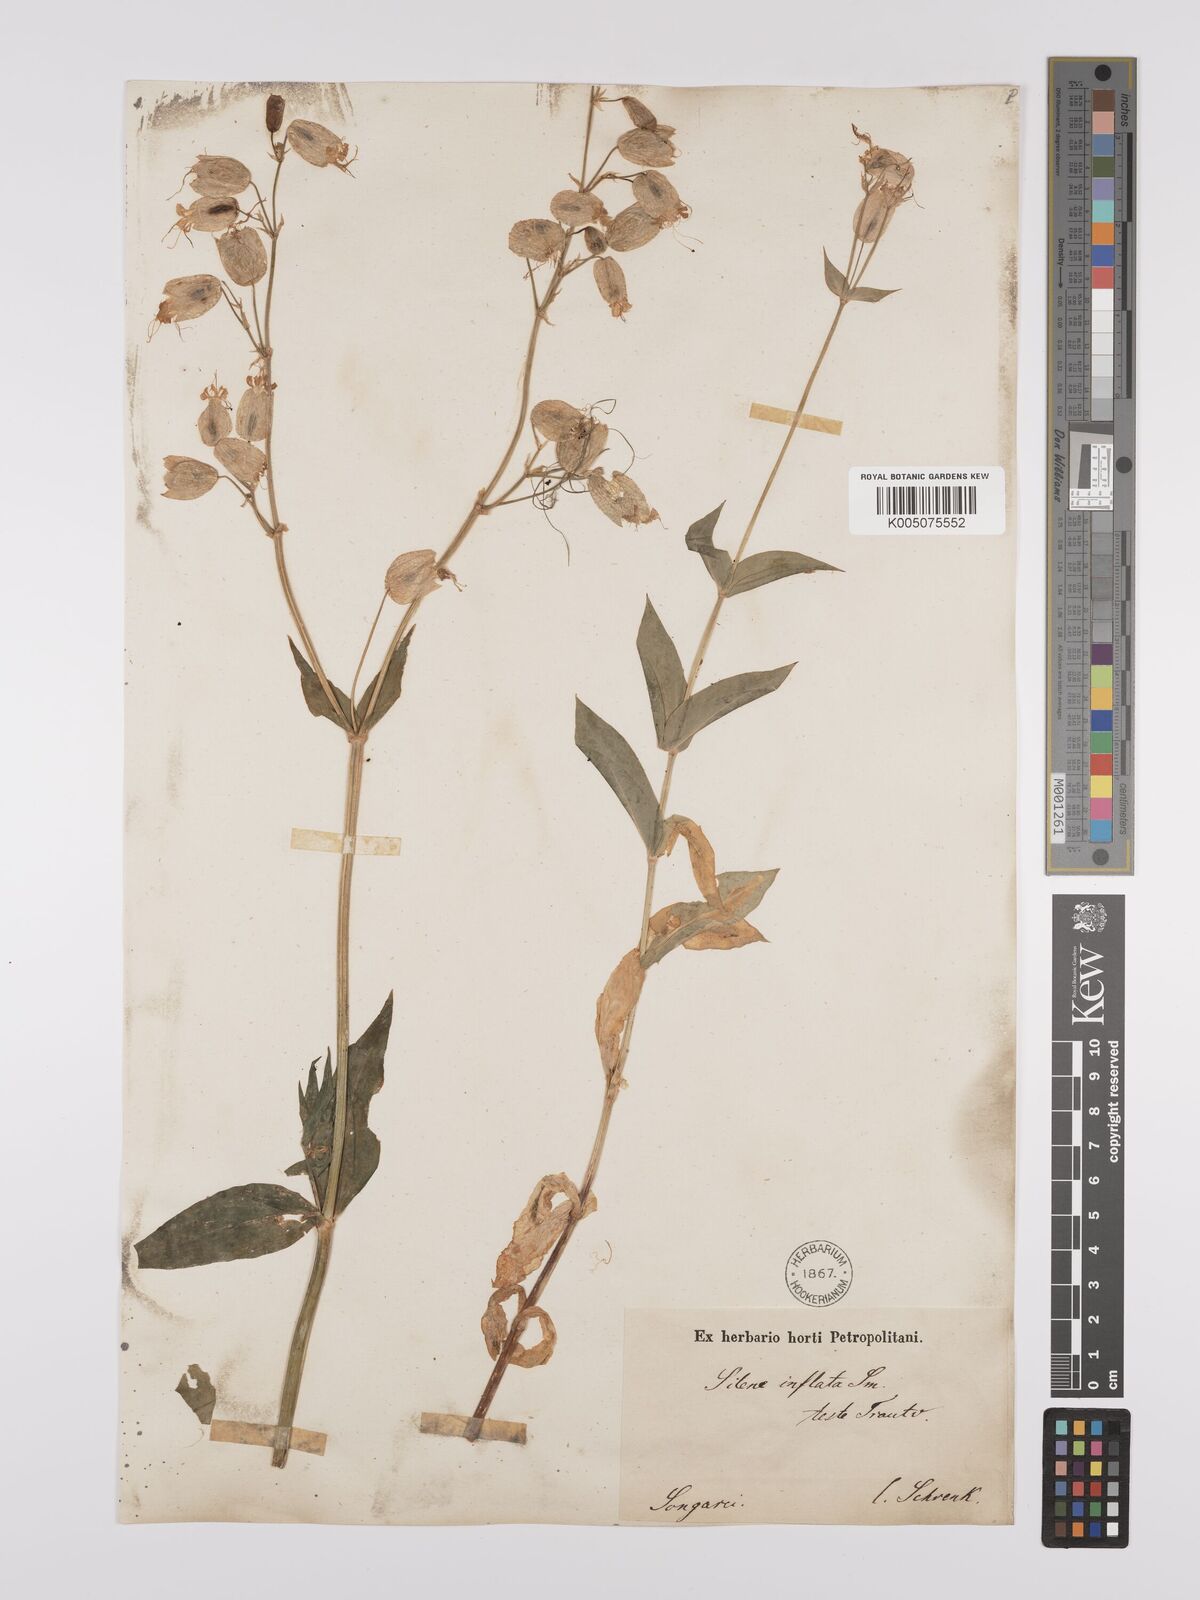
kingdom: Plantae
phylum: Tracheophyta
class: Magnoliopsida
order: Caryophyllales
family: Caryophyllaceae
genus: Silene
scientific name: Silene vulgaris
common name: Bladder campion
